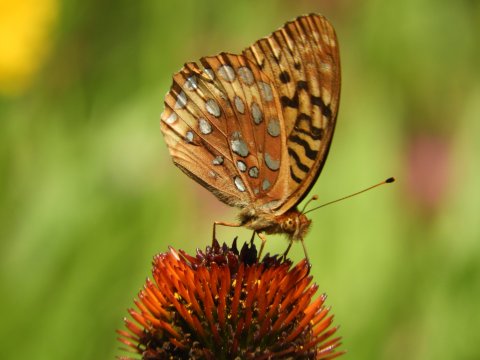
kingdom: Animalia
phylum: Arthropoda
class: Insecta
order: Lepidoptera
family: Nymphalidae
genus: Speyeria
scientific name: Speyeria cybele
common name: Great Spangled Fritillary
